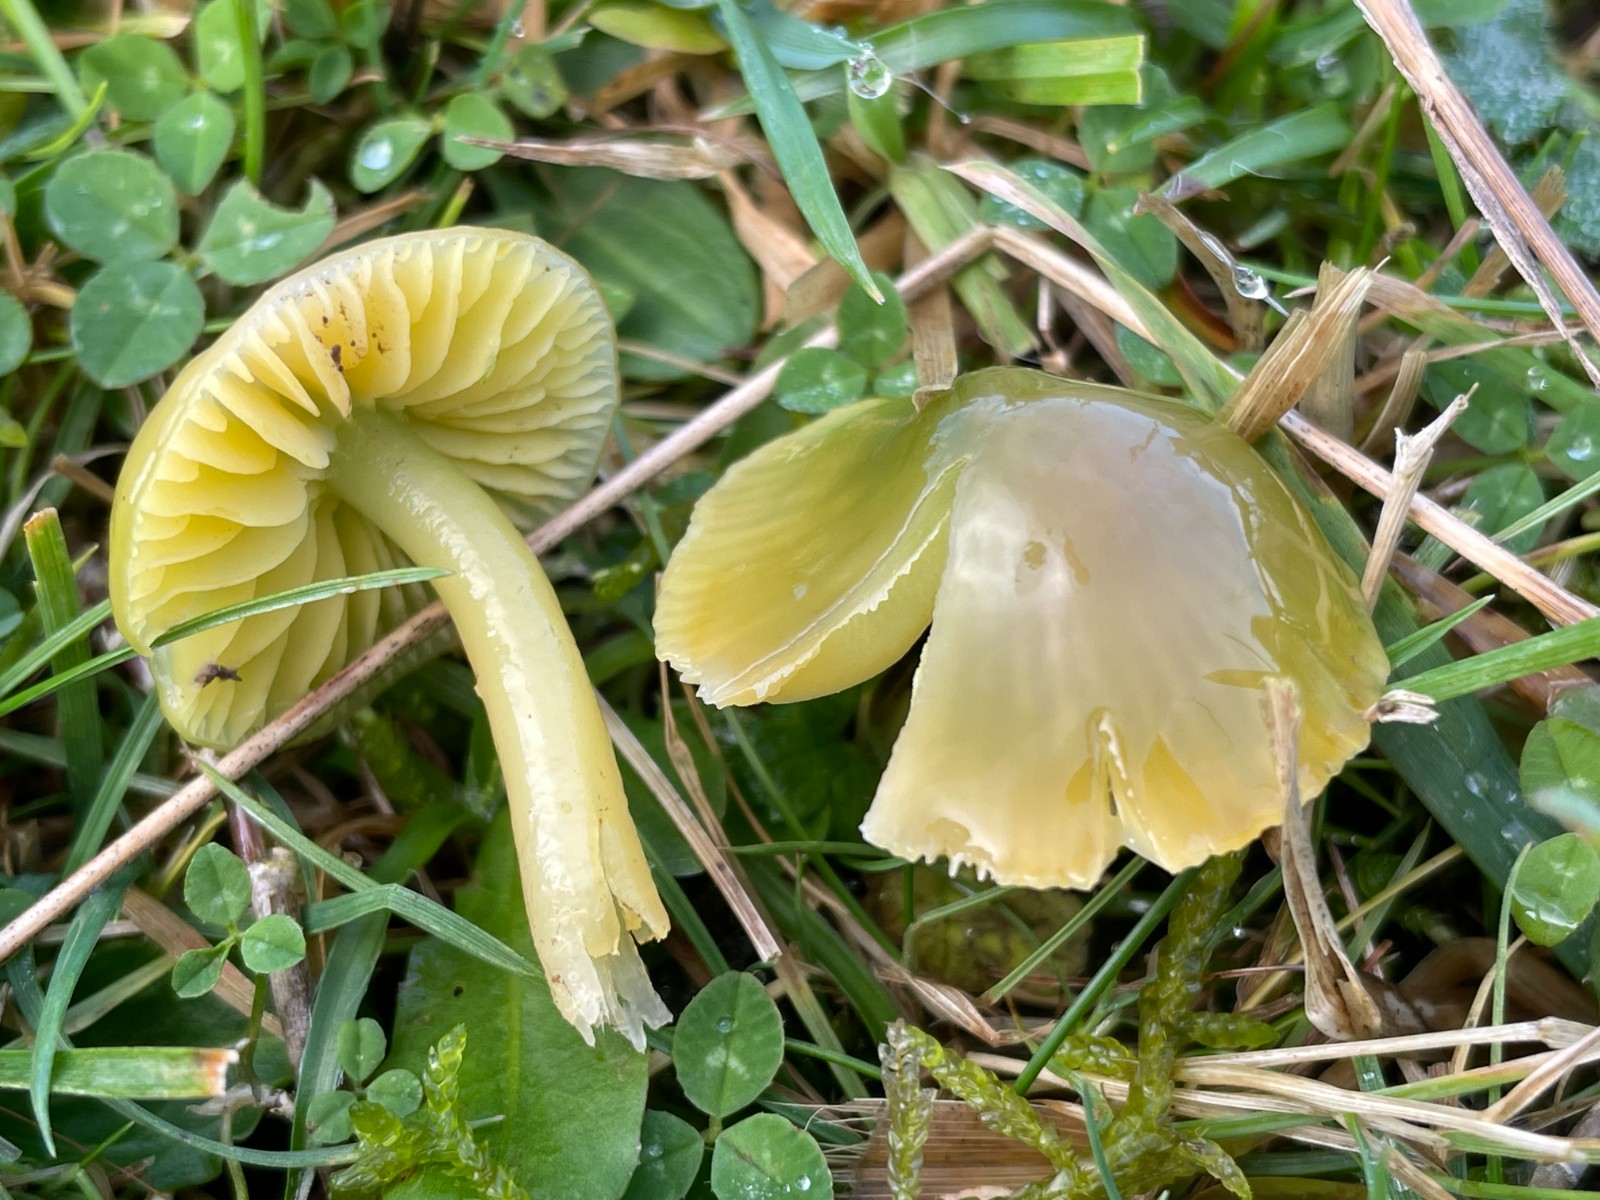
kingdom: Fungi
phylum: Basidiomycota
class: Agaricomycetes
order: Agaricales
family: Hygrophoraceae
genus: Gliophorus
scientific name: Gliophorus psittacinus
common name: papegøje-vokshat
